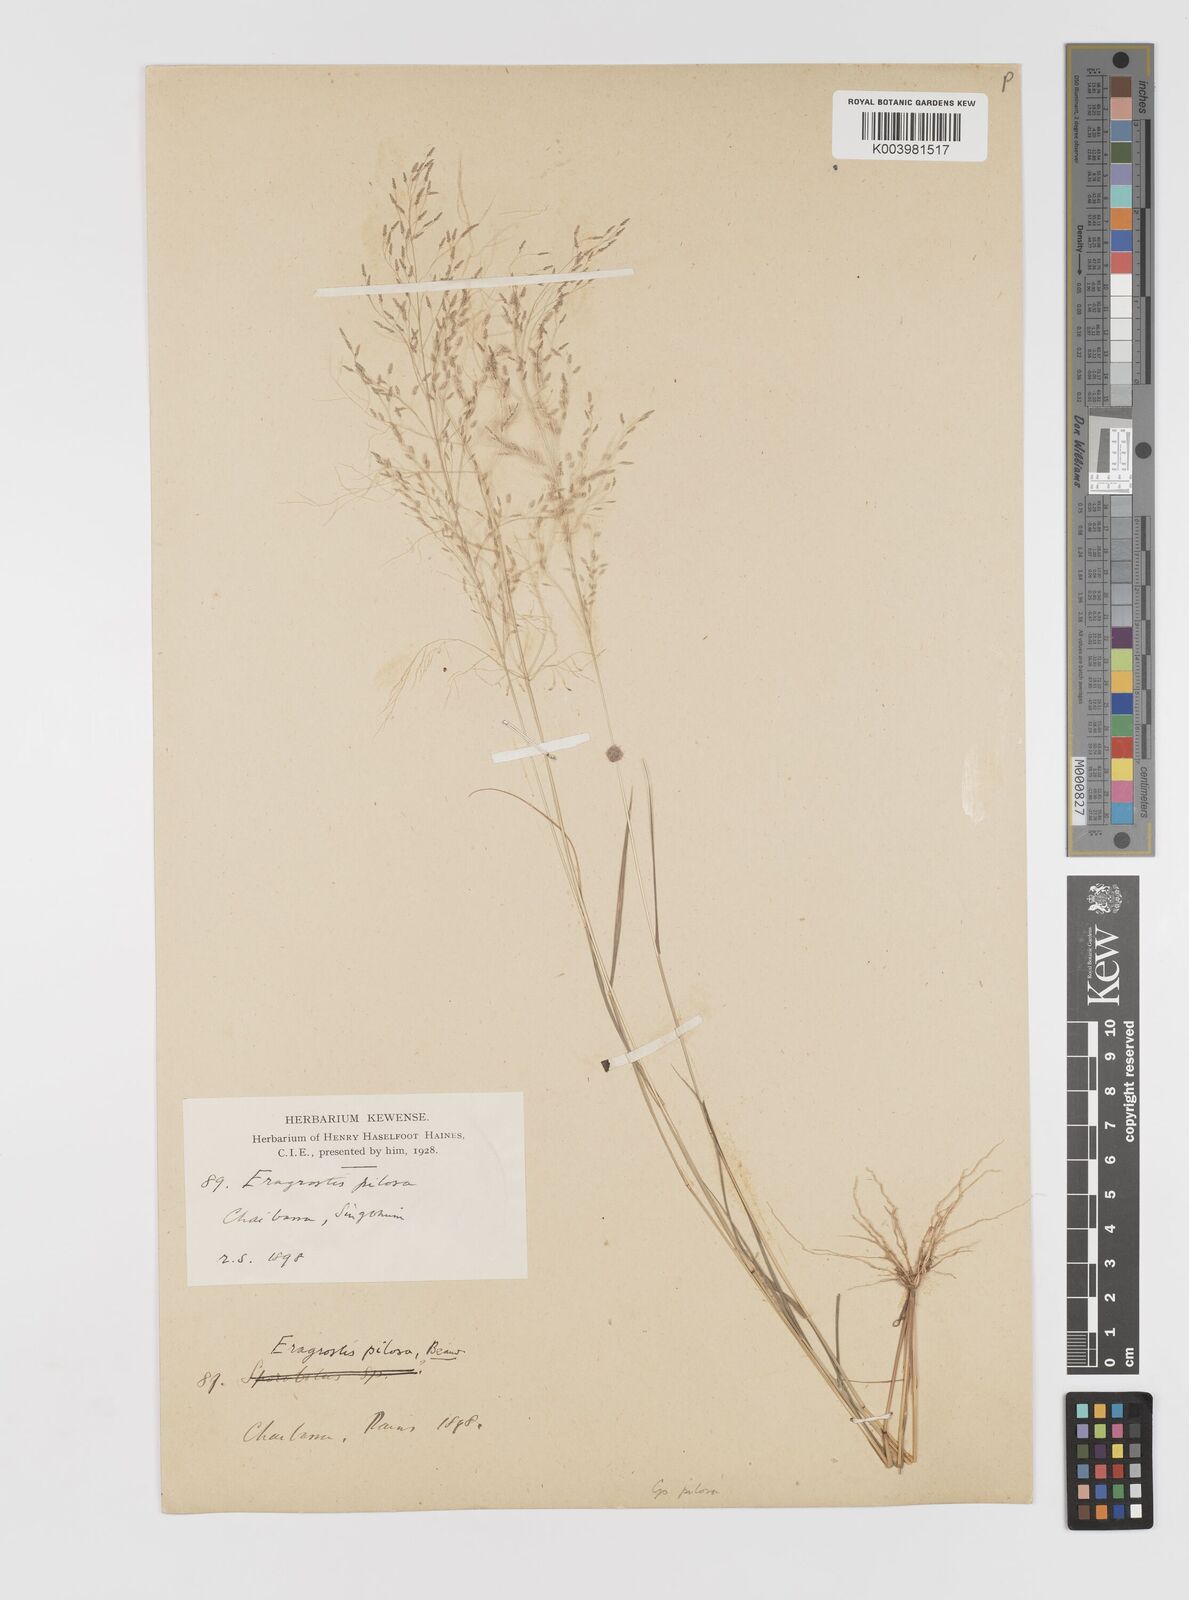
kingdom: Plantae
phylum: Tracheophyta
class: Liliopsida
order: Poales
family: Poaceae
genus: Eragrostis
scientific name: Eragrostis pilosa
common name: Indian lovegrass
